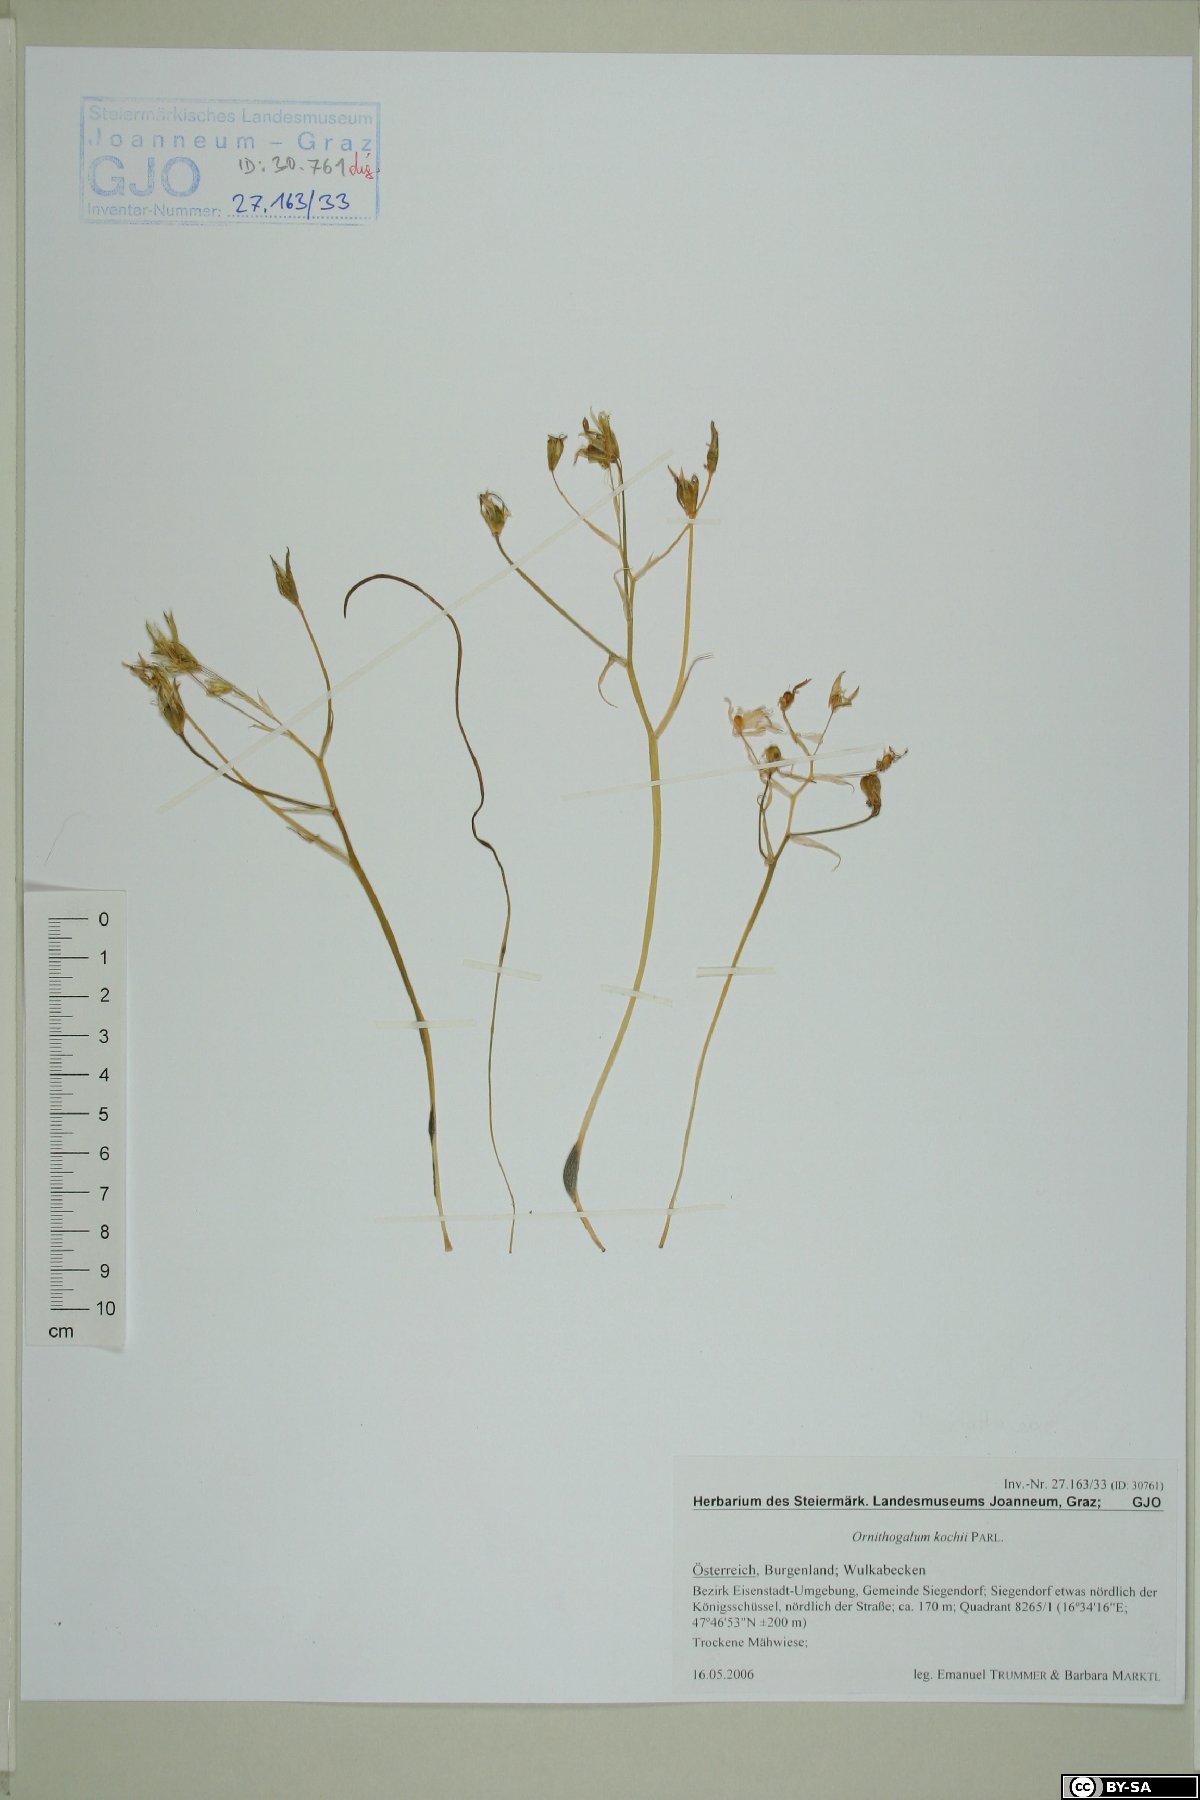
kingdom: Plantae
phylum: Tracheophyta
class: Liliopsida
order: Asparagales
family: Asparagaceae
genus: Ornithogalum
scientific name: Ornithogalum orthophyllum
